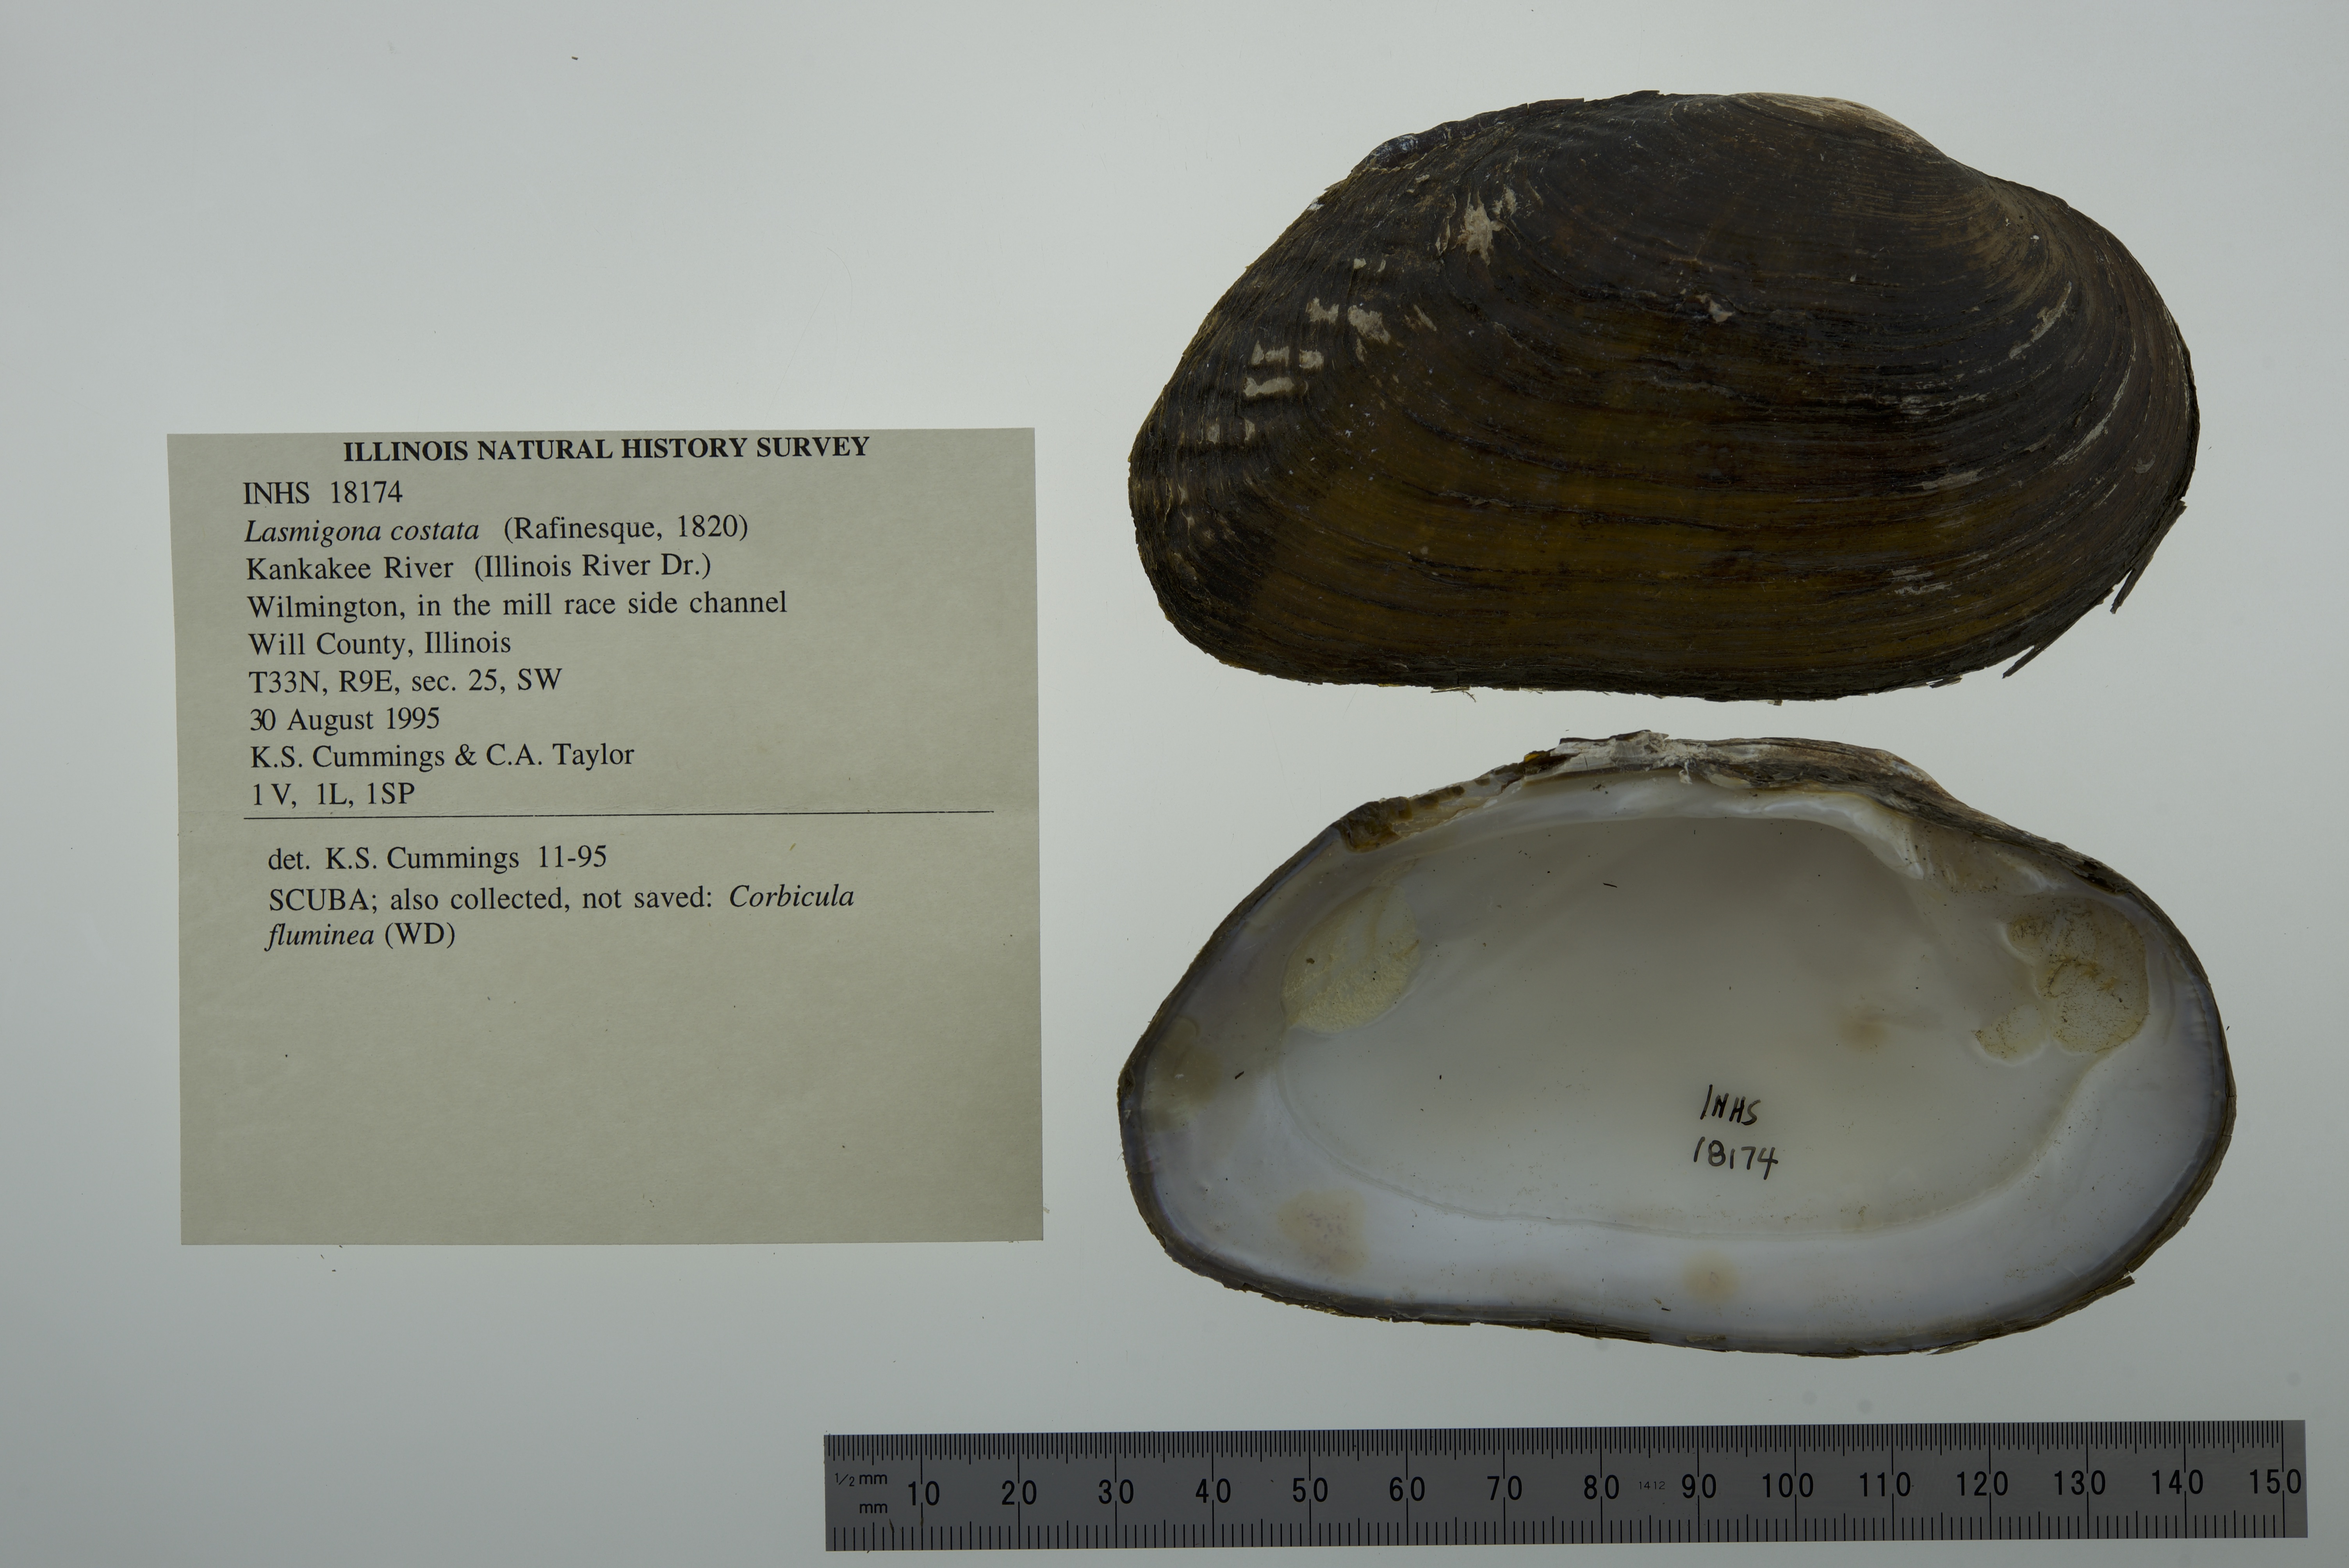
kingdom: Animalia
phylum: Mollusca
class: Bivalvia
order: Unionida
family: Unionidae
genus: Lasmigona
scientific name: Lasmigona costata
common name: Flutedshell
